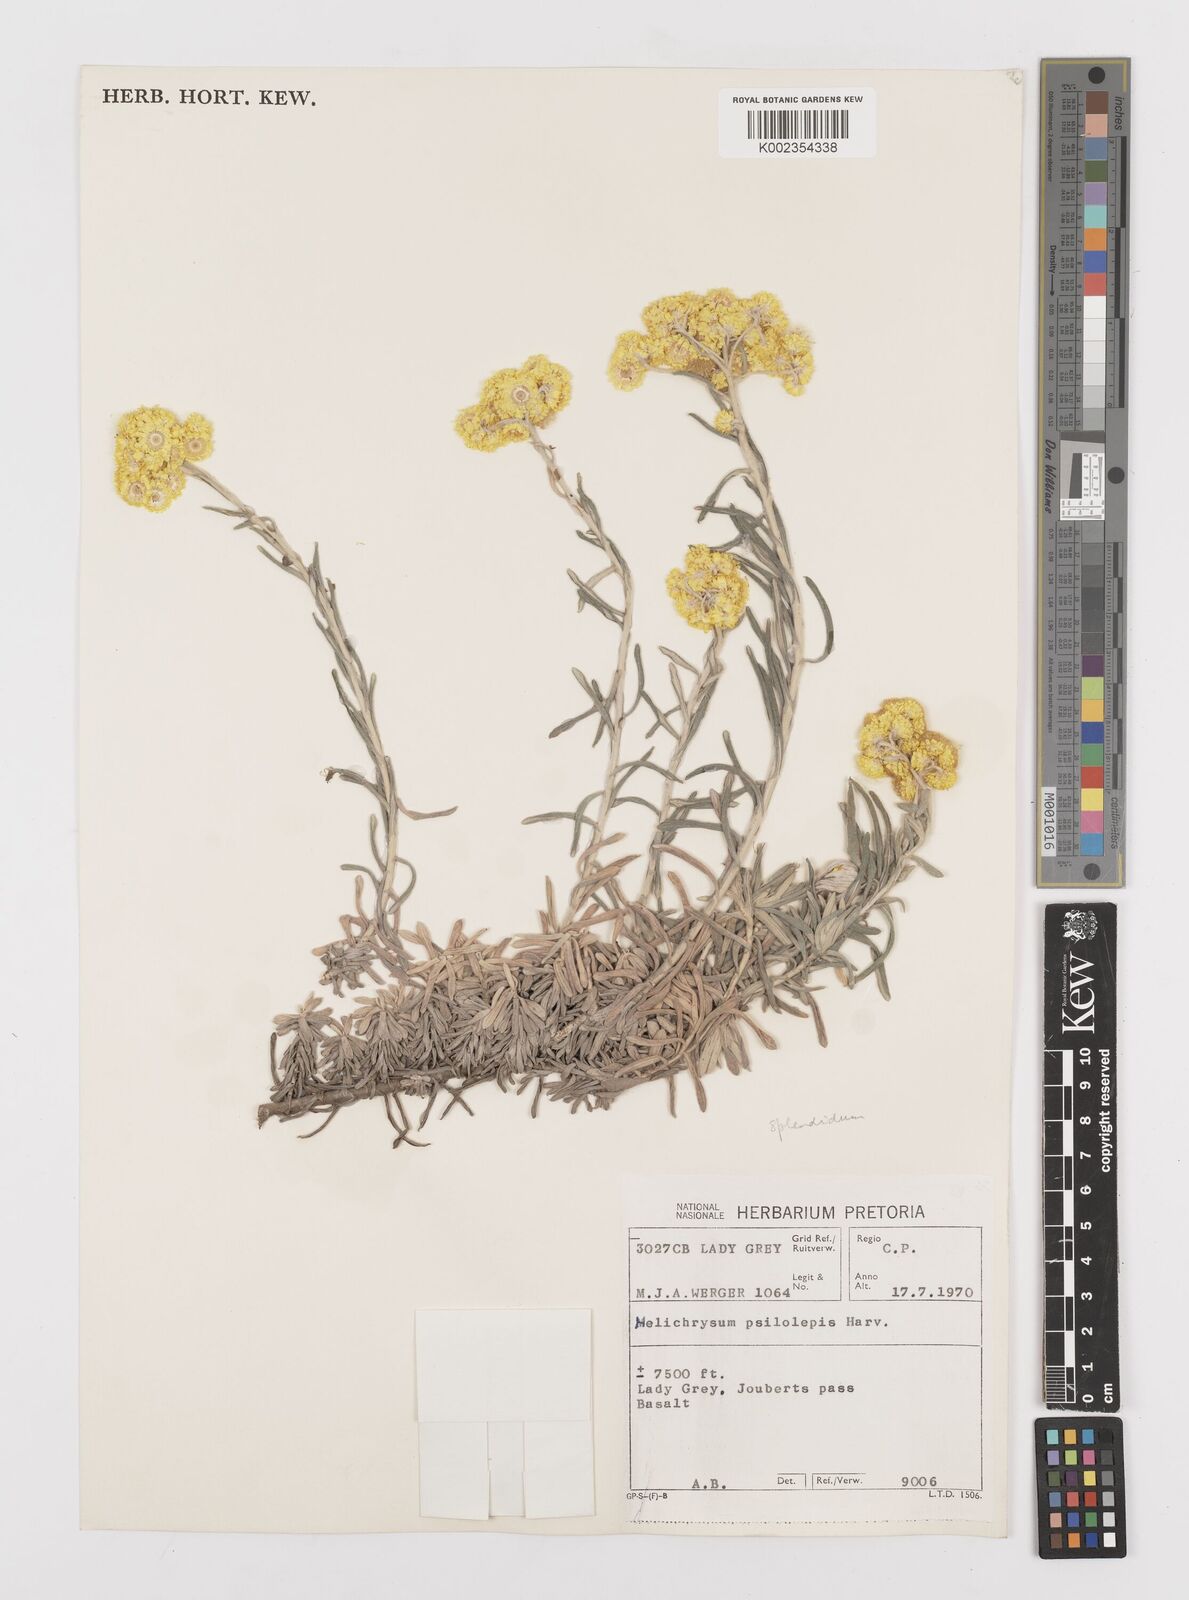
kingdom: Plantae
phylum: Tracheophyta
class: Magnoliopsida
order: Asterales
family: Asteraceae
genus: Helichrysum
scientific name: Helichrysum splendidum
